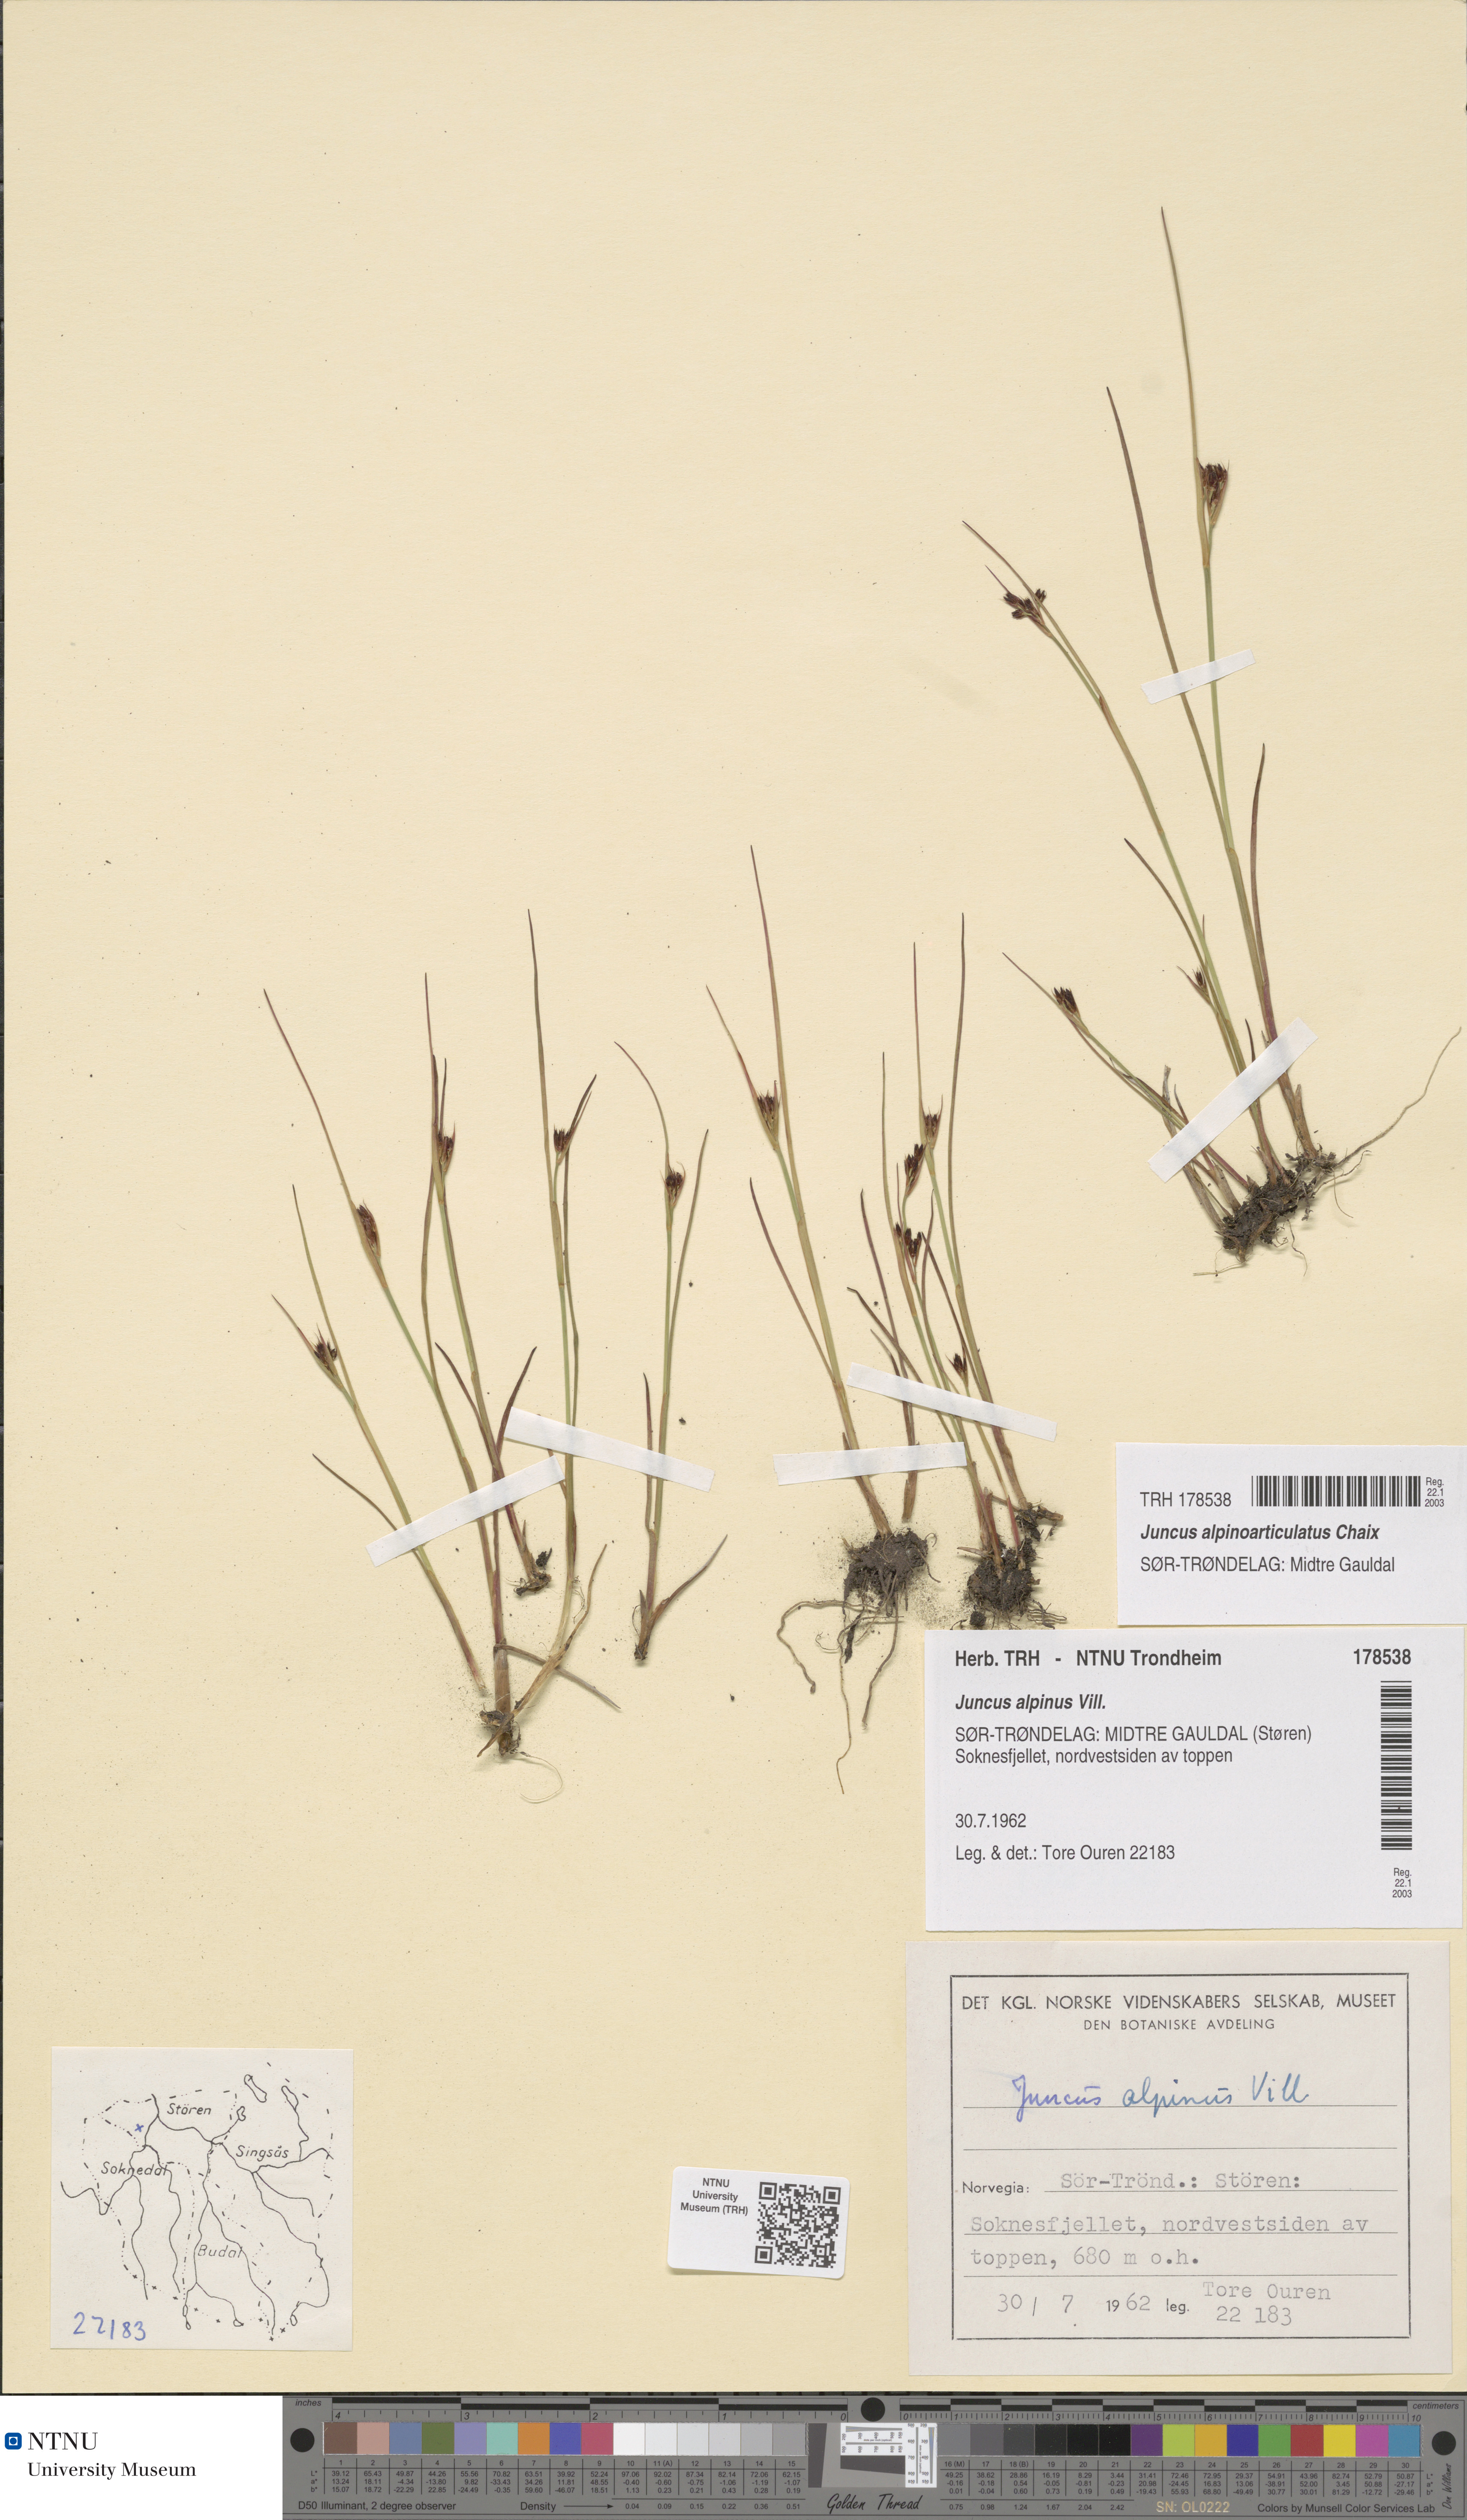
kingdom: Plantae
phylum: Tracheophyta
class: Liliopsida
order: Poales
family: Juncaceae
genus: Juncus
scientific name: Juncus alpinoarticulatus
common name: Alpine rush
